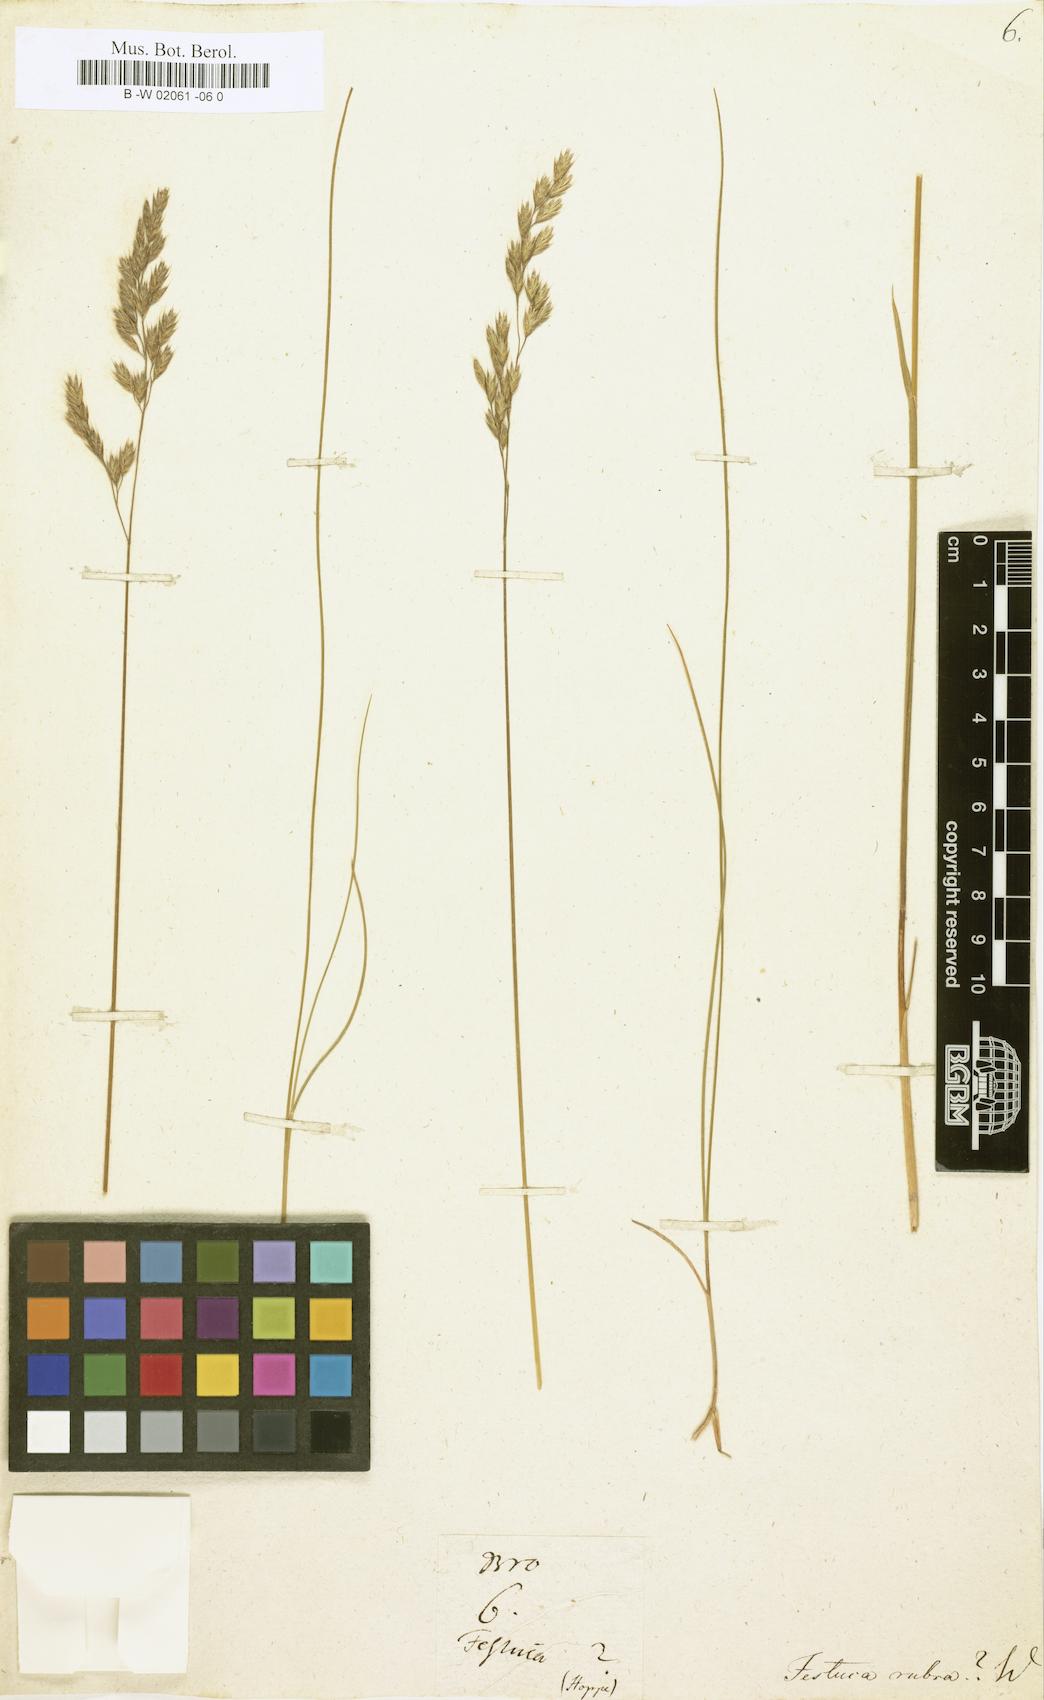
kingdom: Plantae
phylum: Tracheophyta
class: Liliopsida
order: Poales
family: Poaceae
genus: Festuca
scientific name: Festuca rubra
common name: Red fescue
